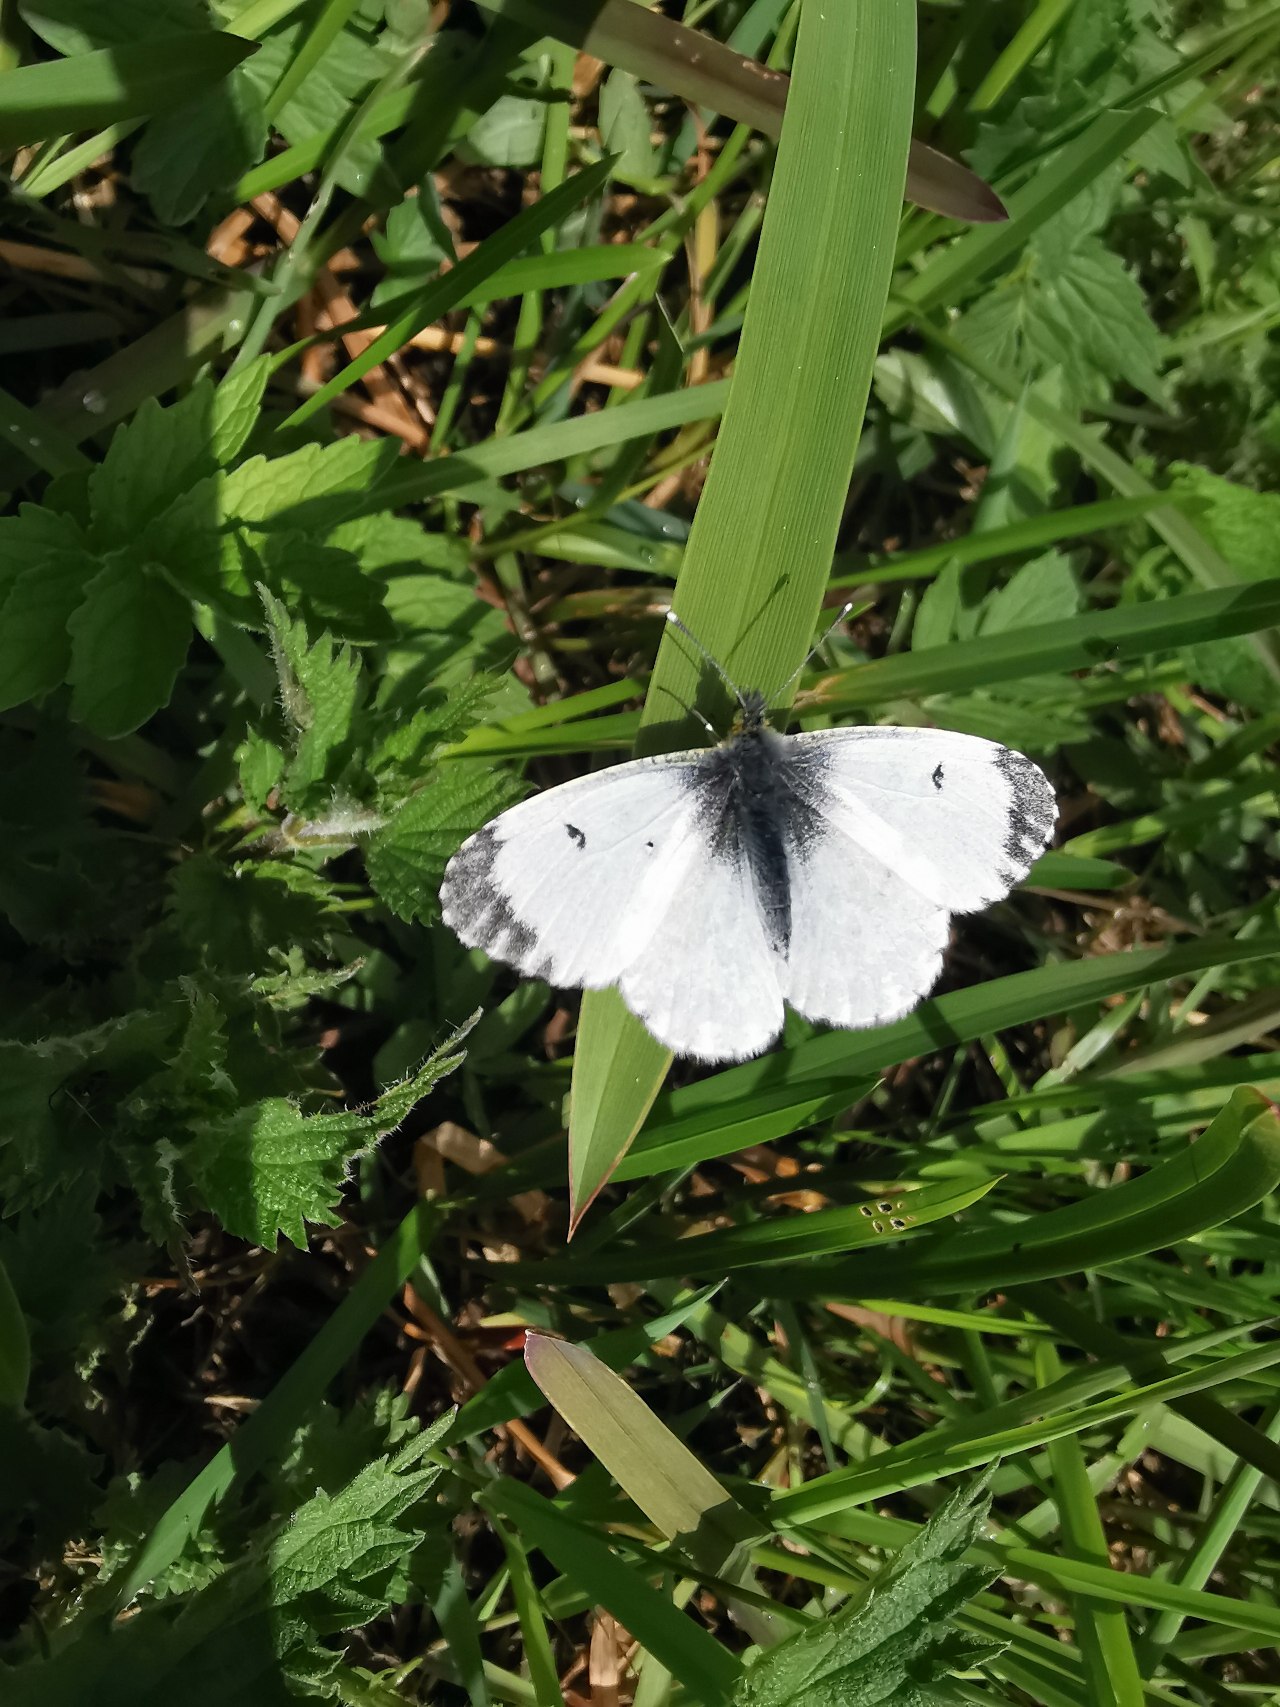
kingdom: Animalia
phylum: Arthropoda
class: Insecta
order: Lepidoptera
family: Pieridae
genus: Anthocharis
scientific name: Anthocharis cardamines
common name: Aurora
